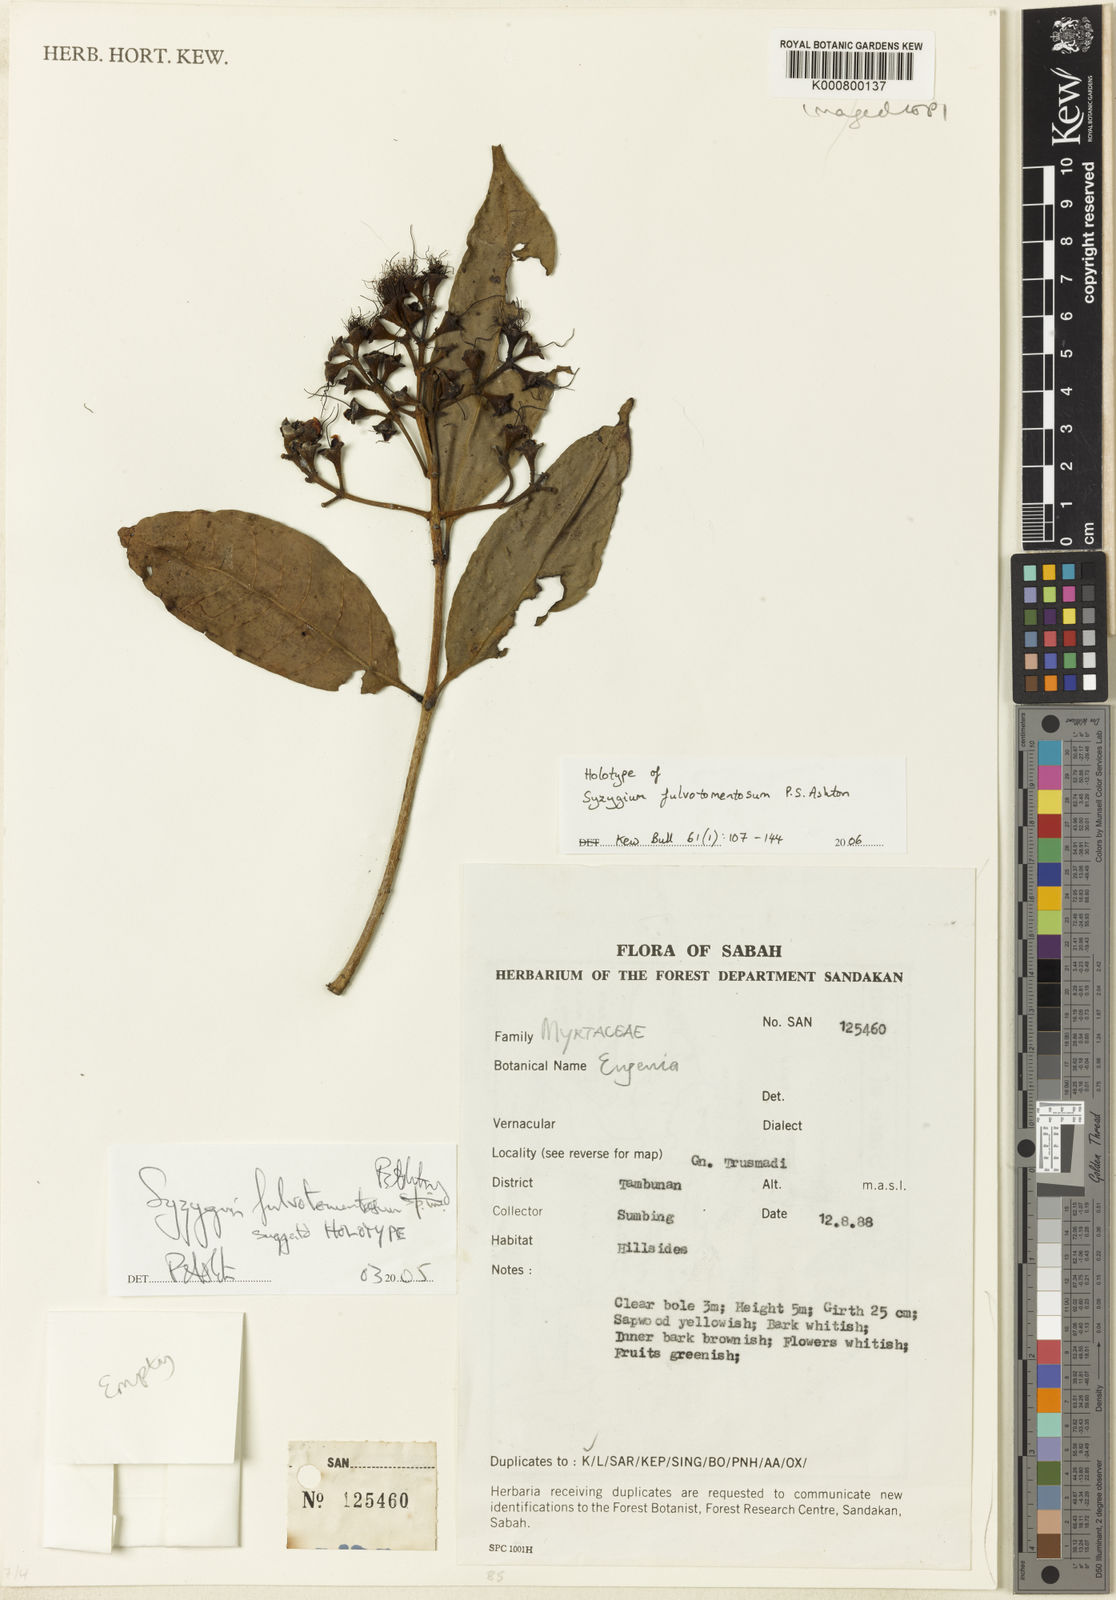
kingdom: Plantae
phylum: Tracheophyta
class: Magnoliopsida
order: Myrtales
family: Myrtaceae
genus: Syzygium
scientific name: Syzygium fulvotomentosum
